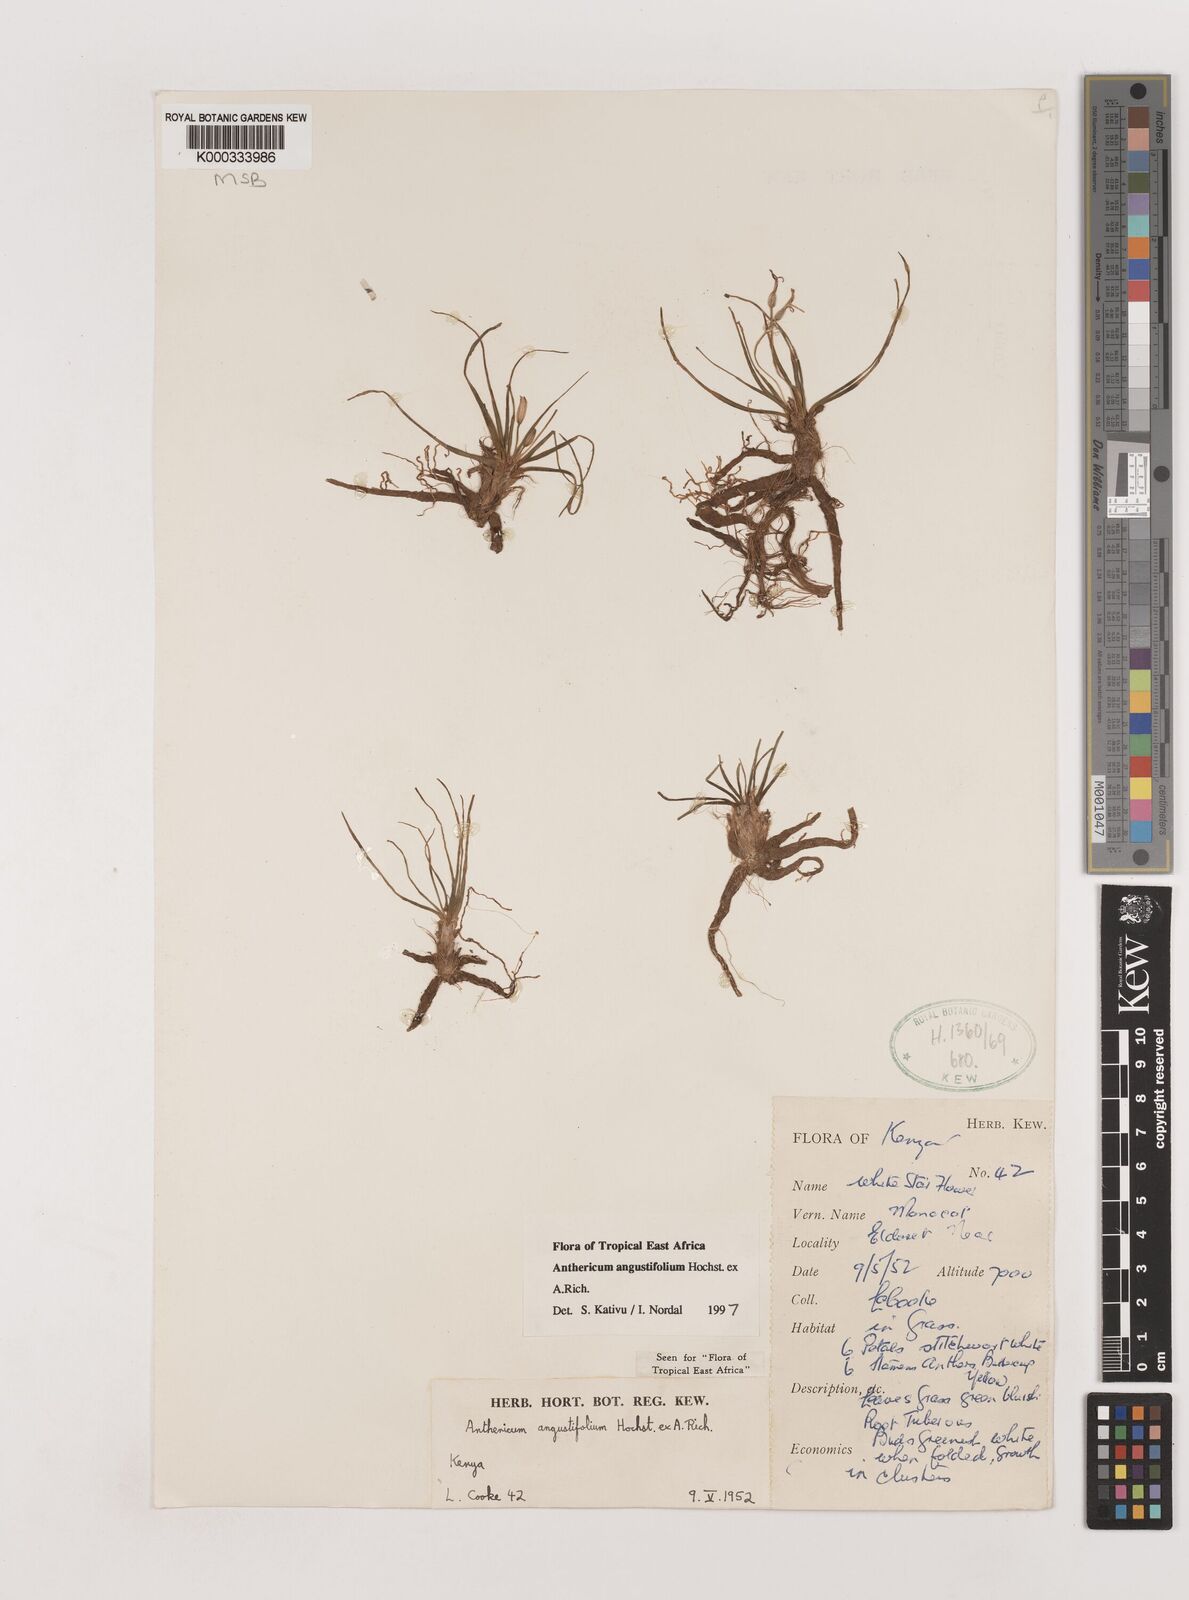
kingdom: Plantae
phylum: Tracheophyta
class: Liliopsida
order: Asparagales
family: Asparagaceae
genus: Anthericum
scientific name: Anthericum angustifolium
